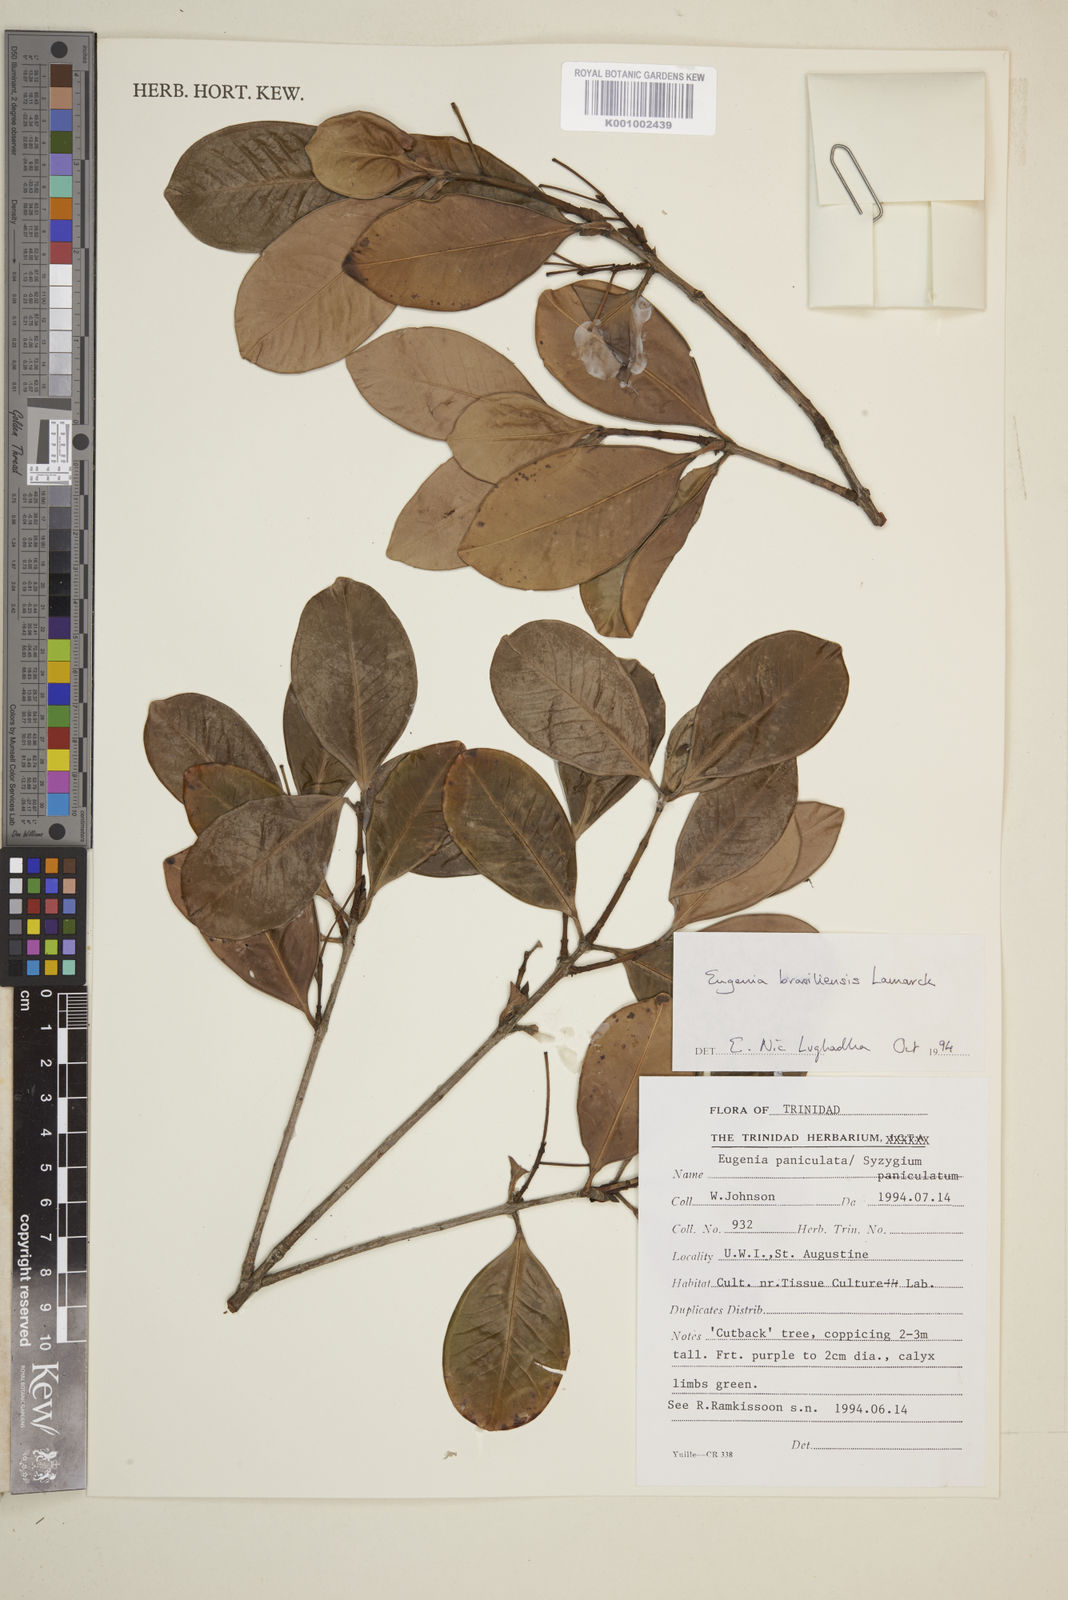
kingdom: Plantae
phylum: Tracheophyta
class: Magnoliopsida
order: Myrtales
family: Myrtaceae
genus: Eugenia
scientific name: Eugenia brasiliensis
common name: Grumichama
